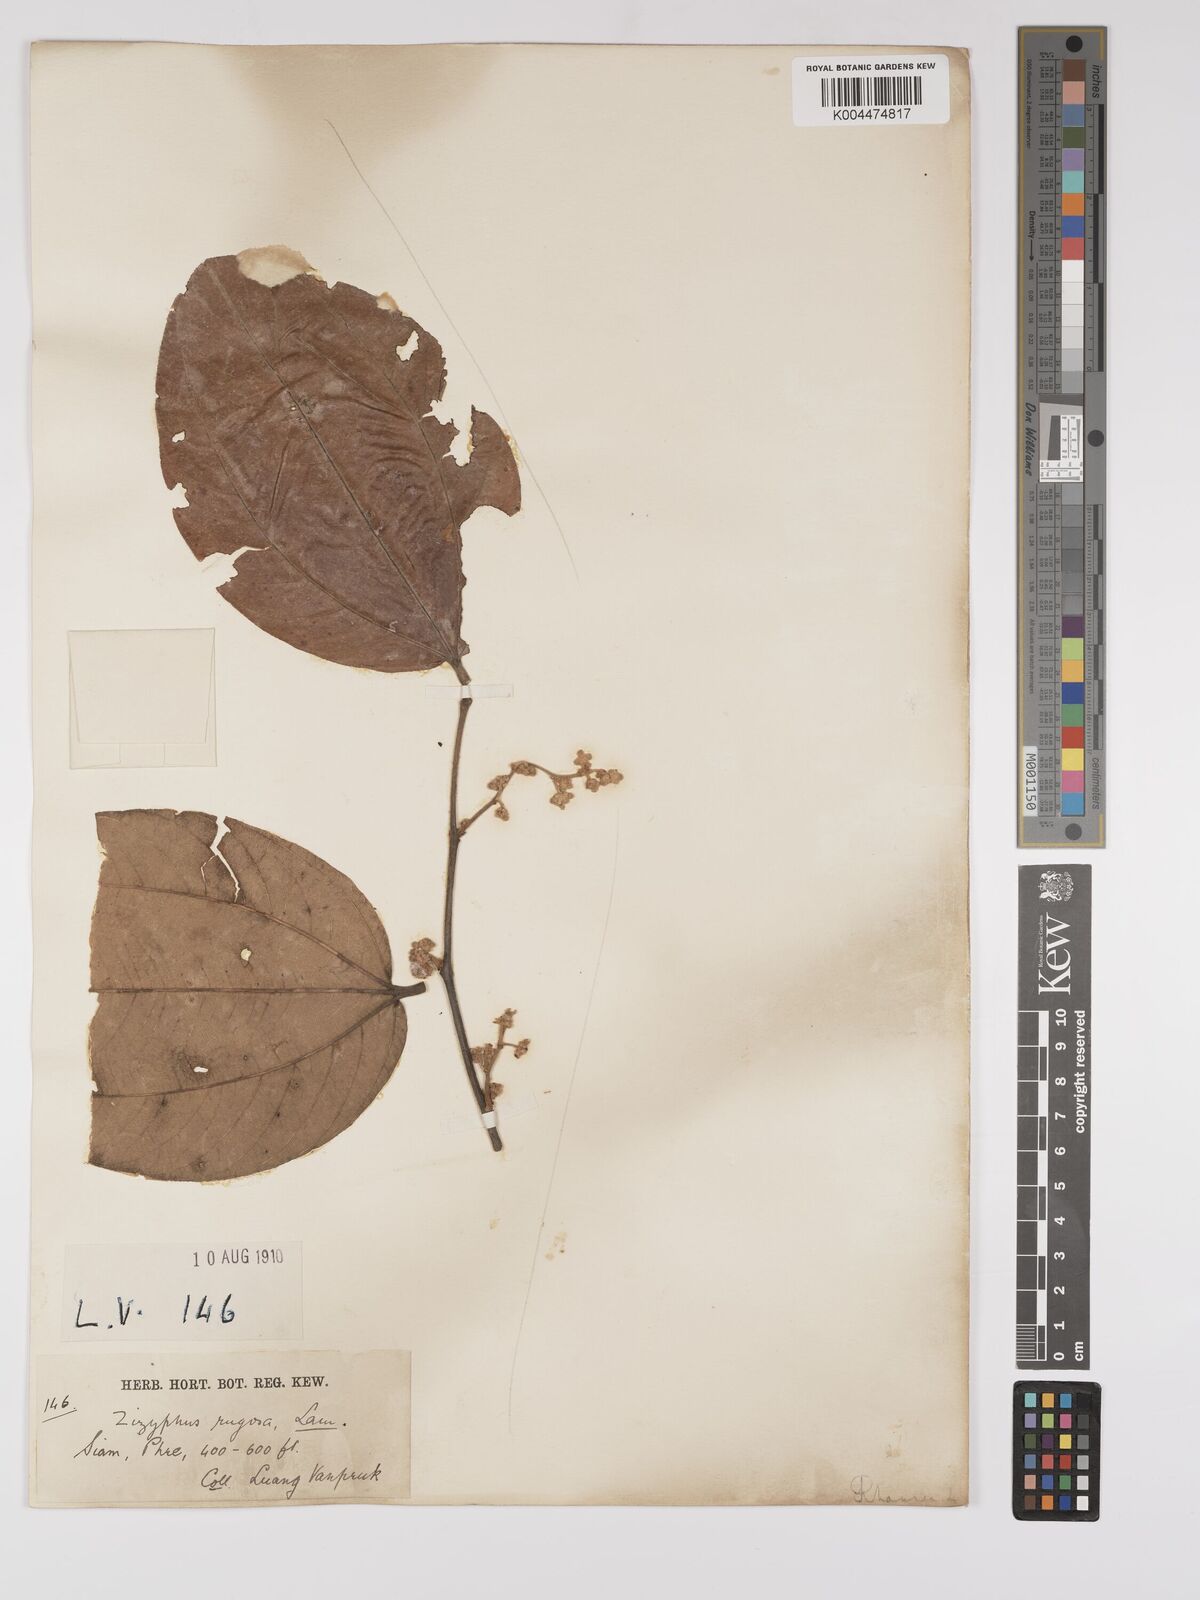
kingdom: Plantae
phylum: Tracheophyta
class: Magnoliopsida
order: Rosales
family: Rhamnaceae
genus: Ziziphus
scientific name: Ziziphus rugosa
